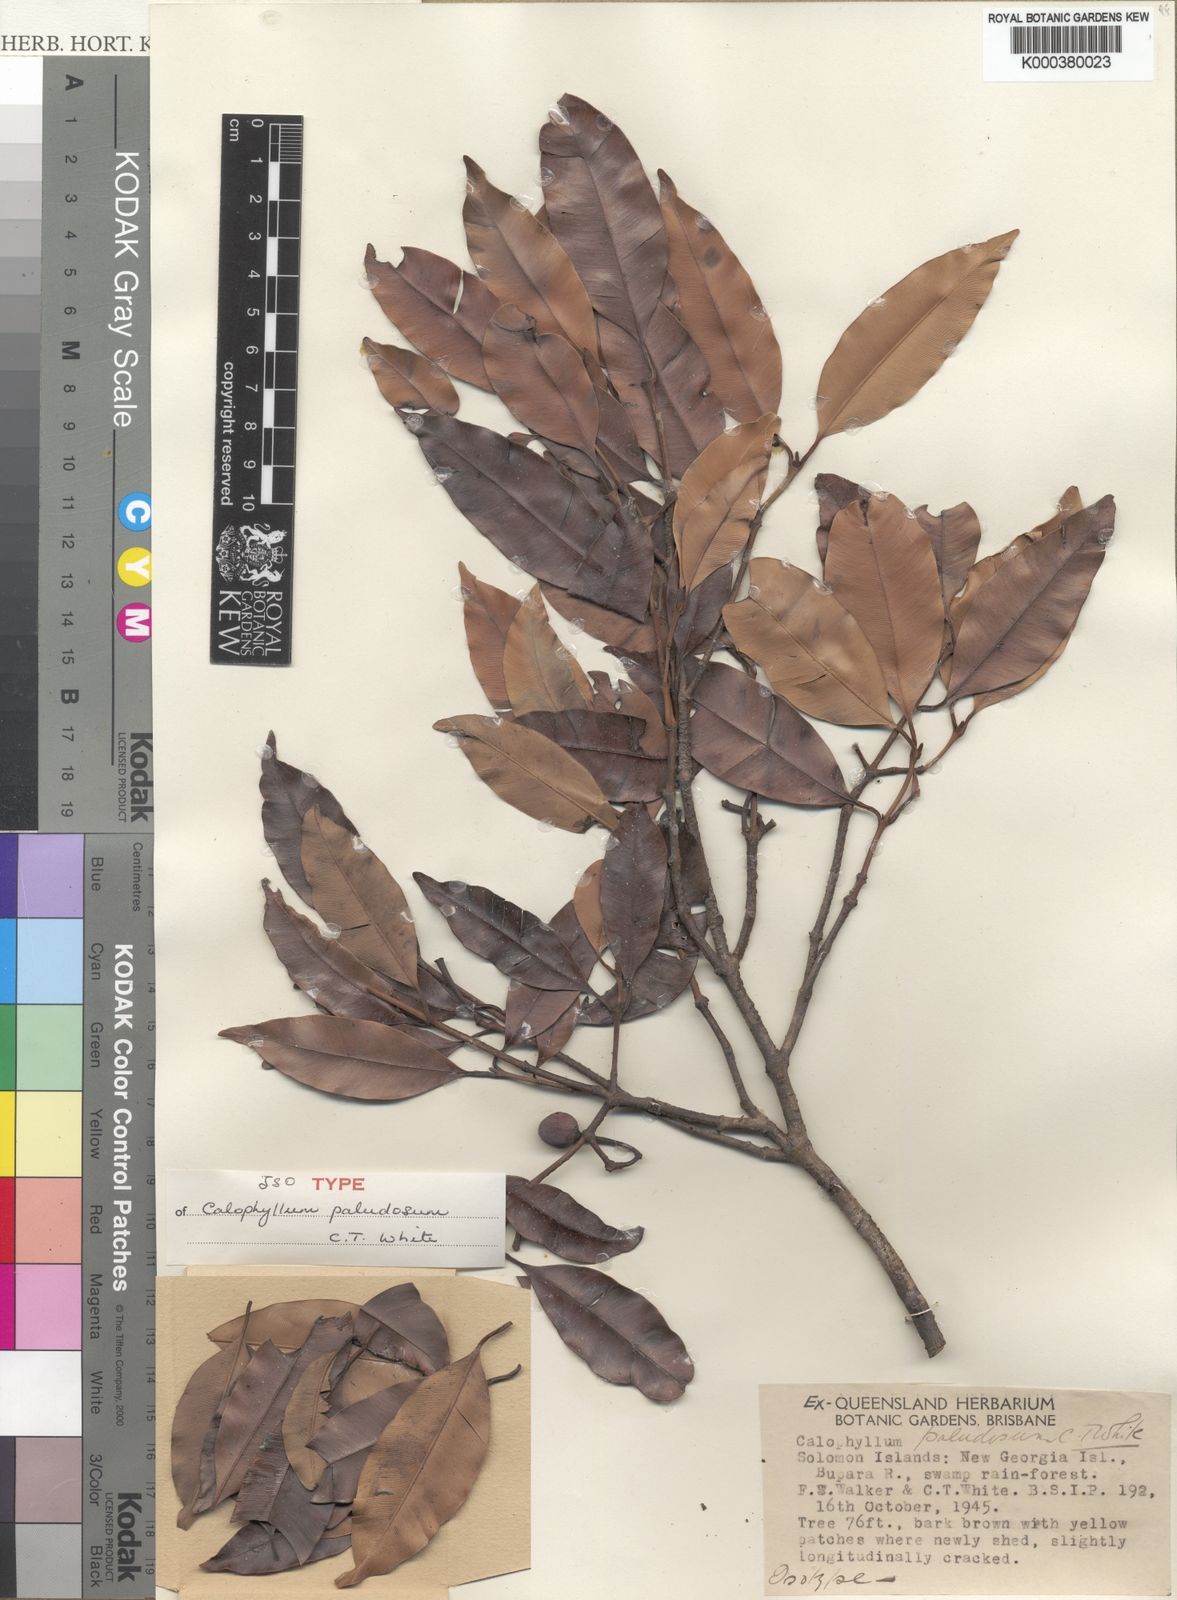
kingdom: Plantae
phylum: Tracheophyta
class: Magnoliopsida
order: Malpighiales
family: Calophyllaceae
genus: Calophyllum
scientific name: Calophyllum soulattri
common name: Bitangoor boonot
